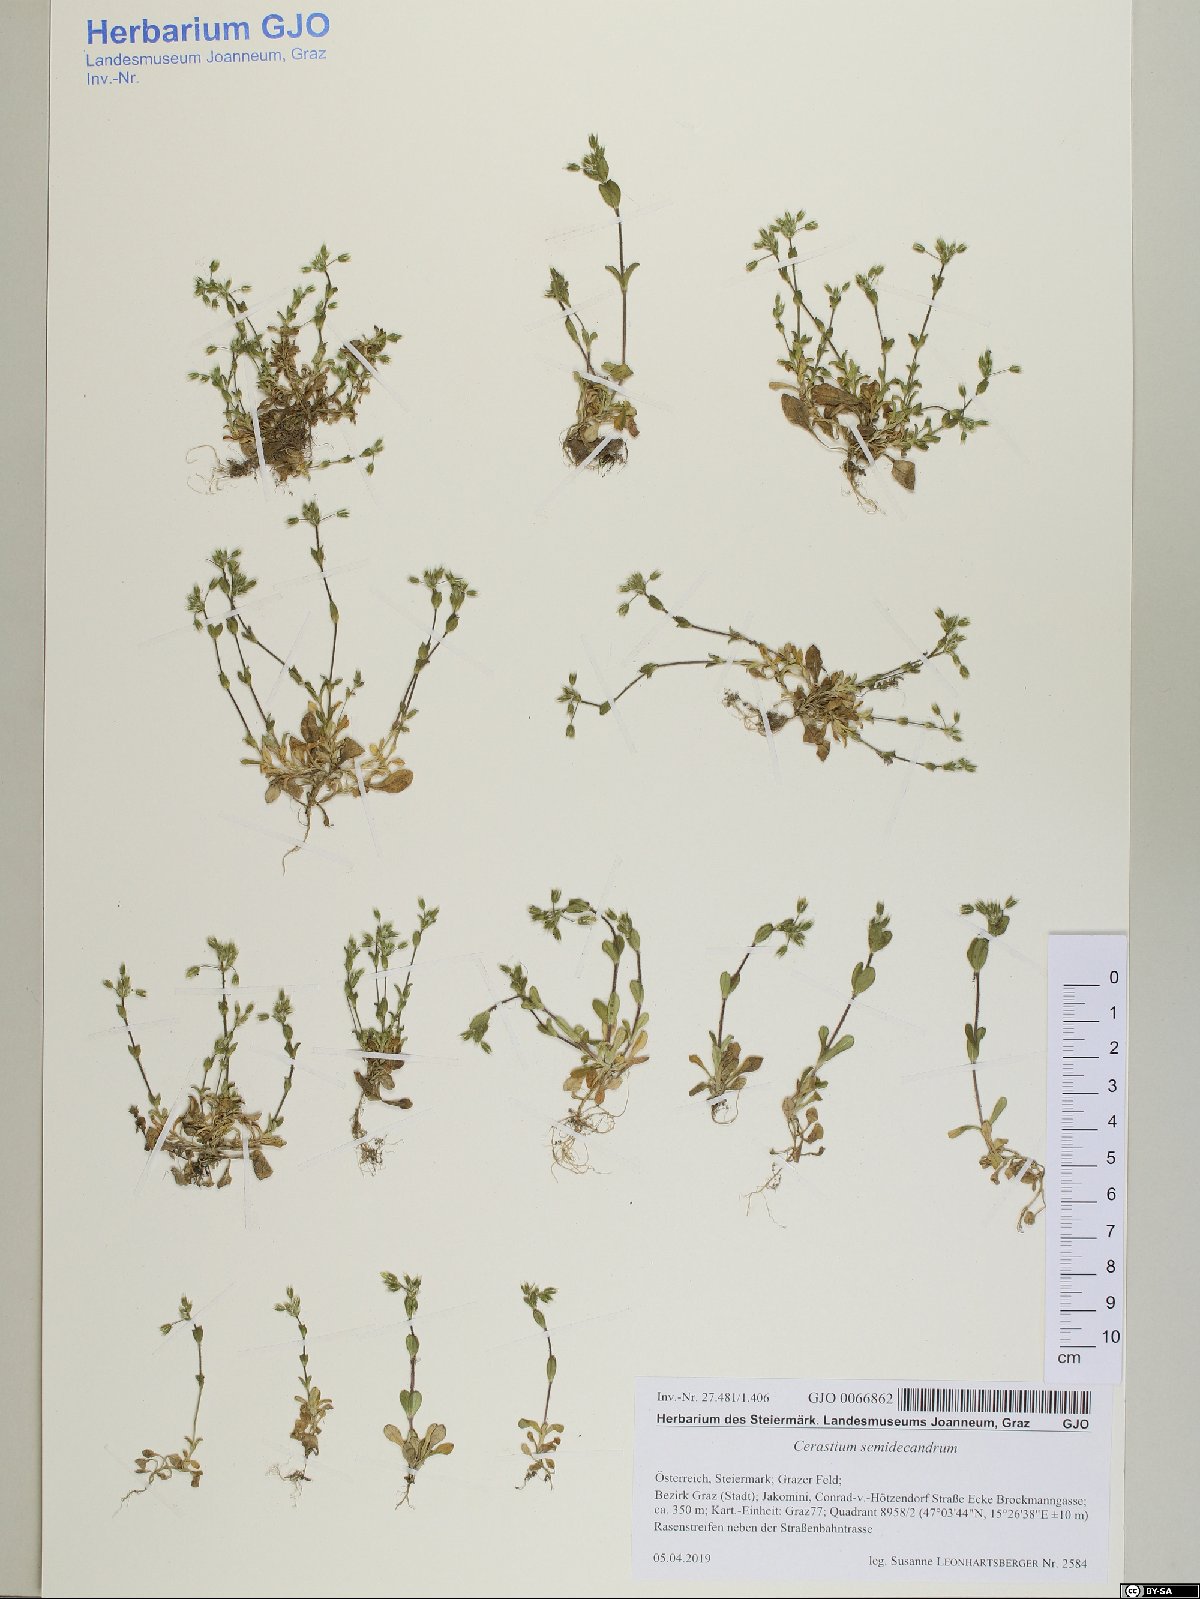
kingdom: Plantae
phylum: Tracheophyta
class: Magnoliopsida
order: Caryophyllales
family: Caryophyllaceae
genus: Cerastium
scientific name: Cerastium semidecandrum
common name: Little mouse-ear
